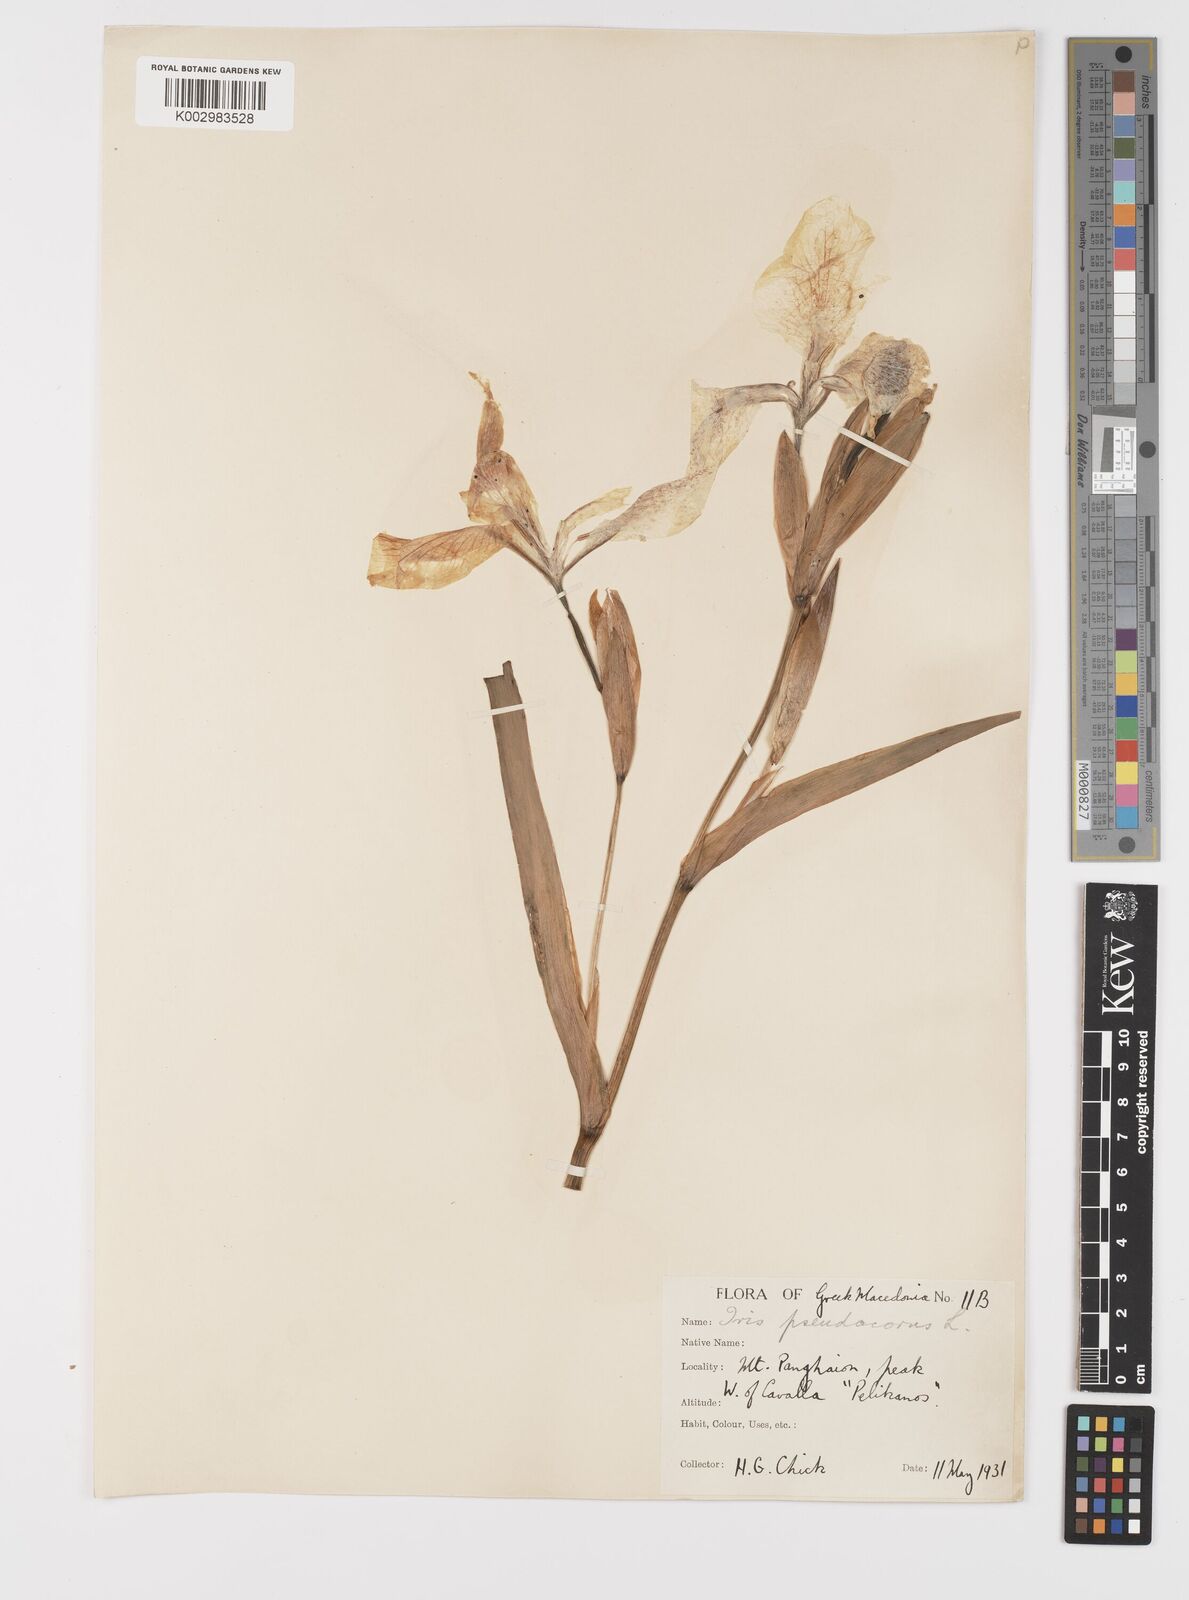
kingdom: Plantae
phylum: Tracheophyta
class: Liliopsida
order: Asparagales
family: Iridaceae
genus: Iris
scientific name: Iris pseudacorus
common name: Yellow flag
